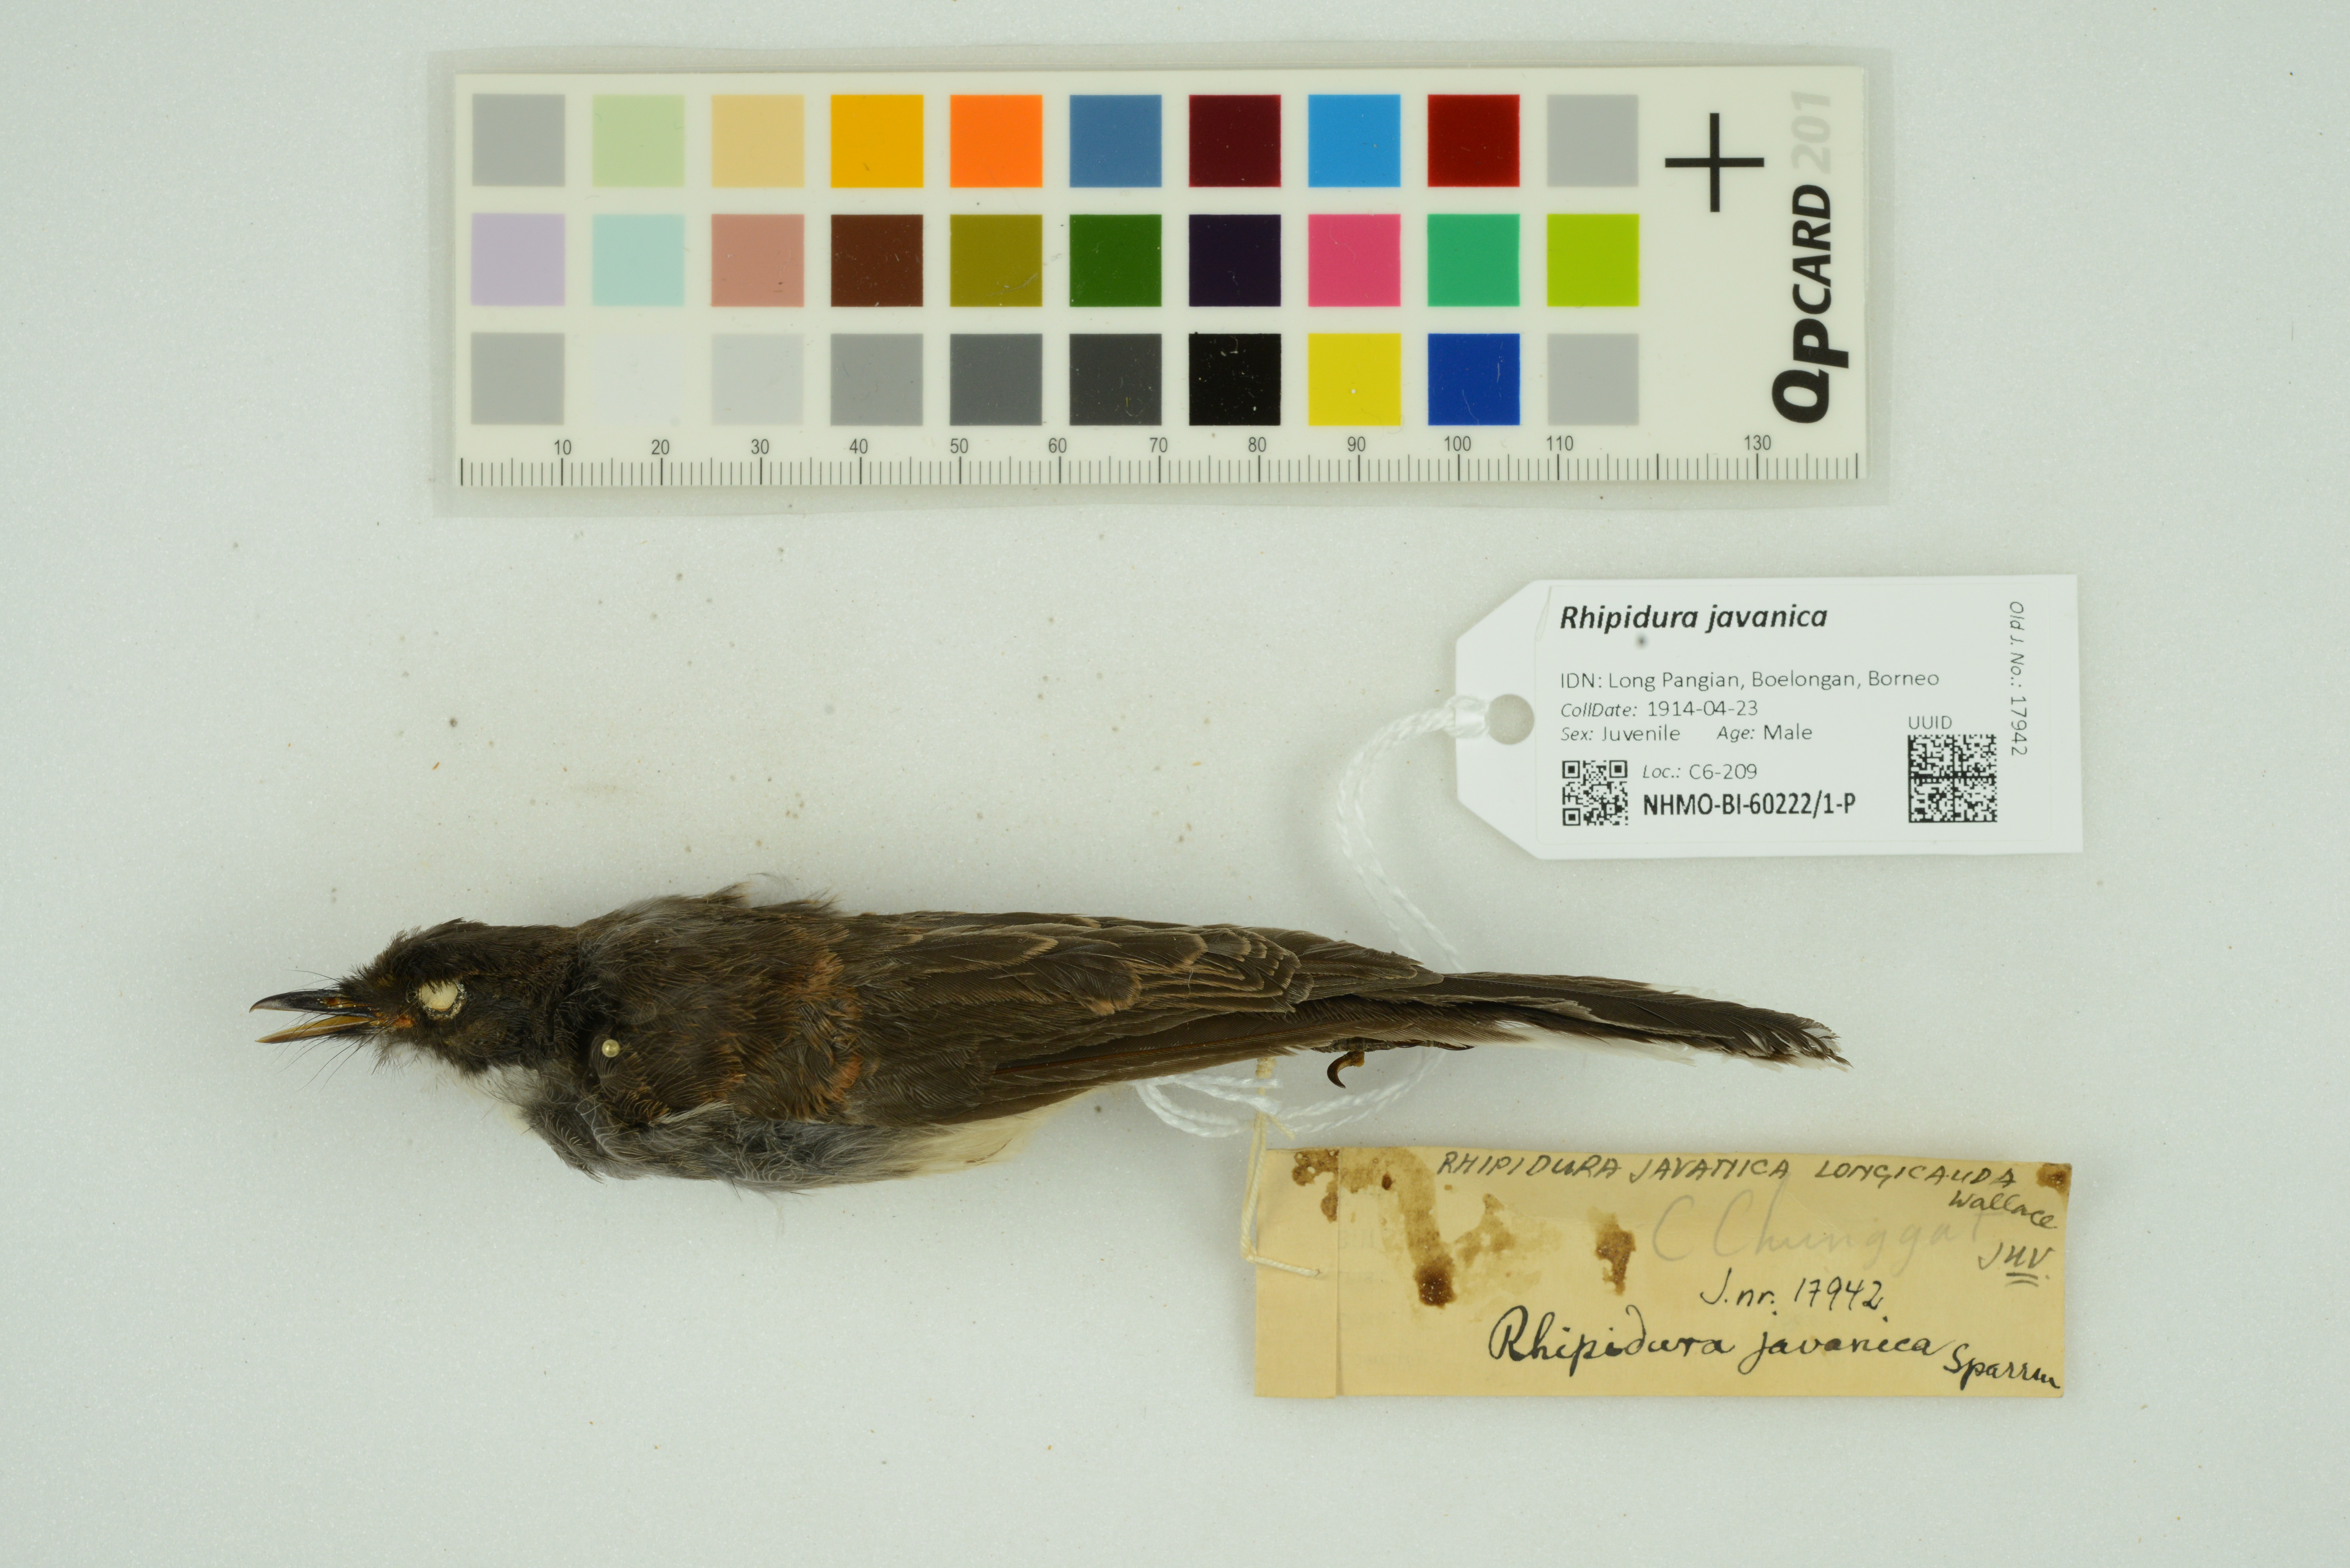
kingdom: Animalia
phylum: Chordata
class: Aves
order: Passeriformes
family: Rhipiduridae
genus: Rhipidura
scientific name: Rhipidura javanica
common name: Pied fantail
